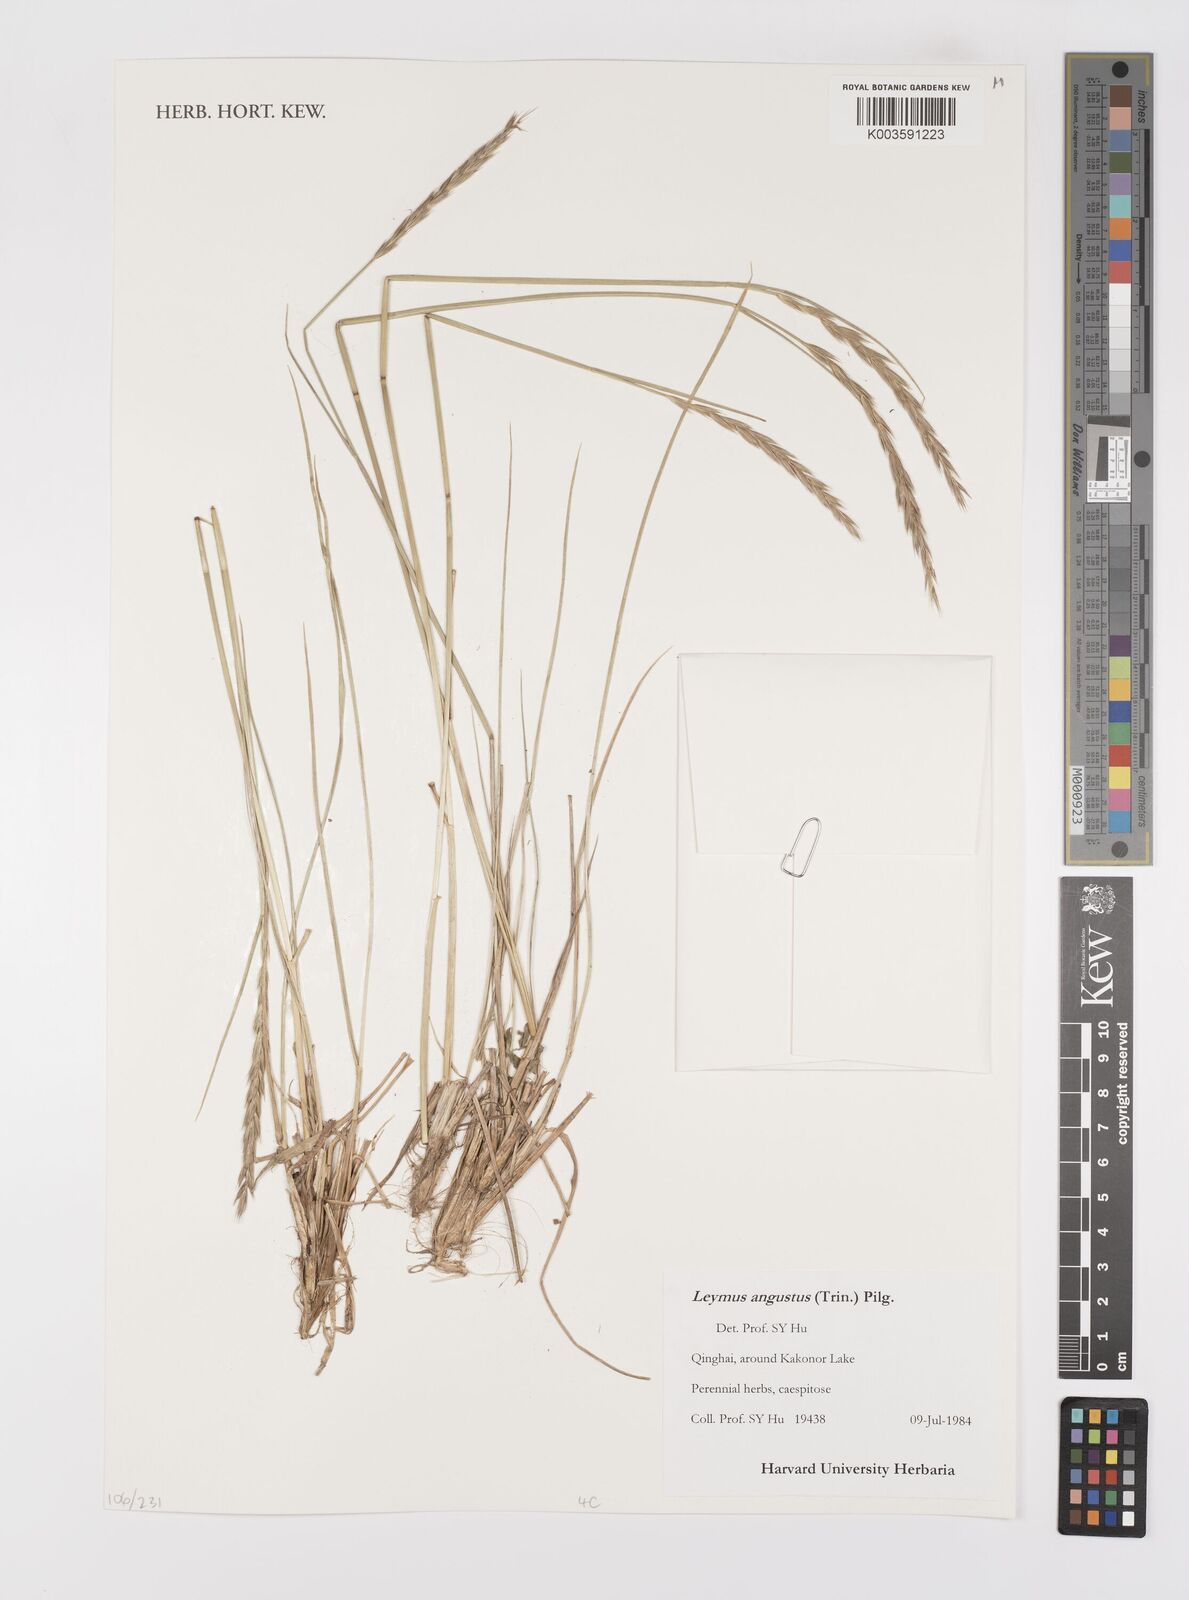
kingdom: Plantae
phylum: Tracheophyta
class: Liliopsida
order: Poales
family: Poaceae
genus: Leymus
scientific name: Leymus angustus
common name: Altai wildrye
